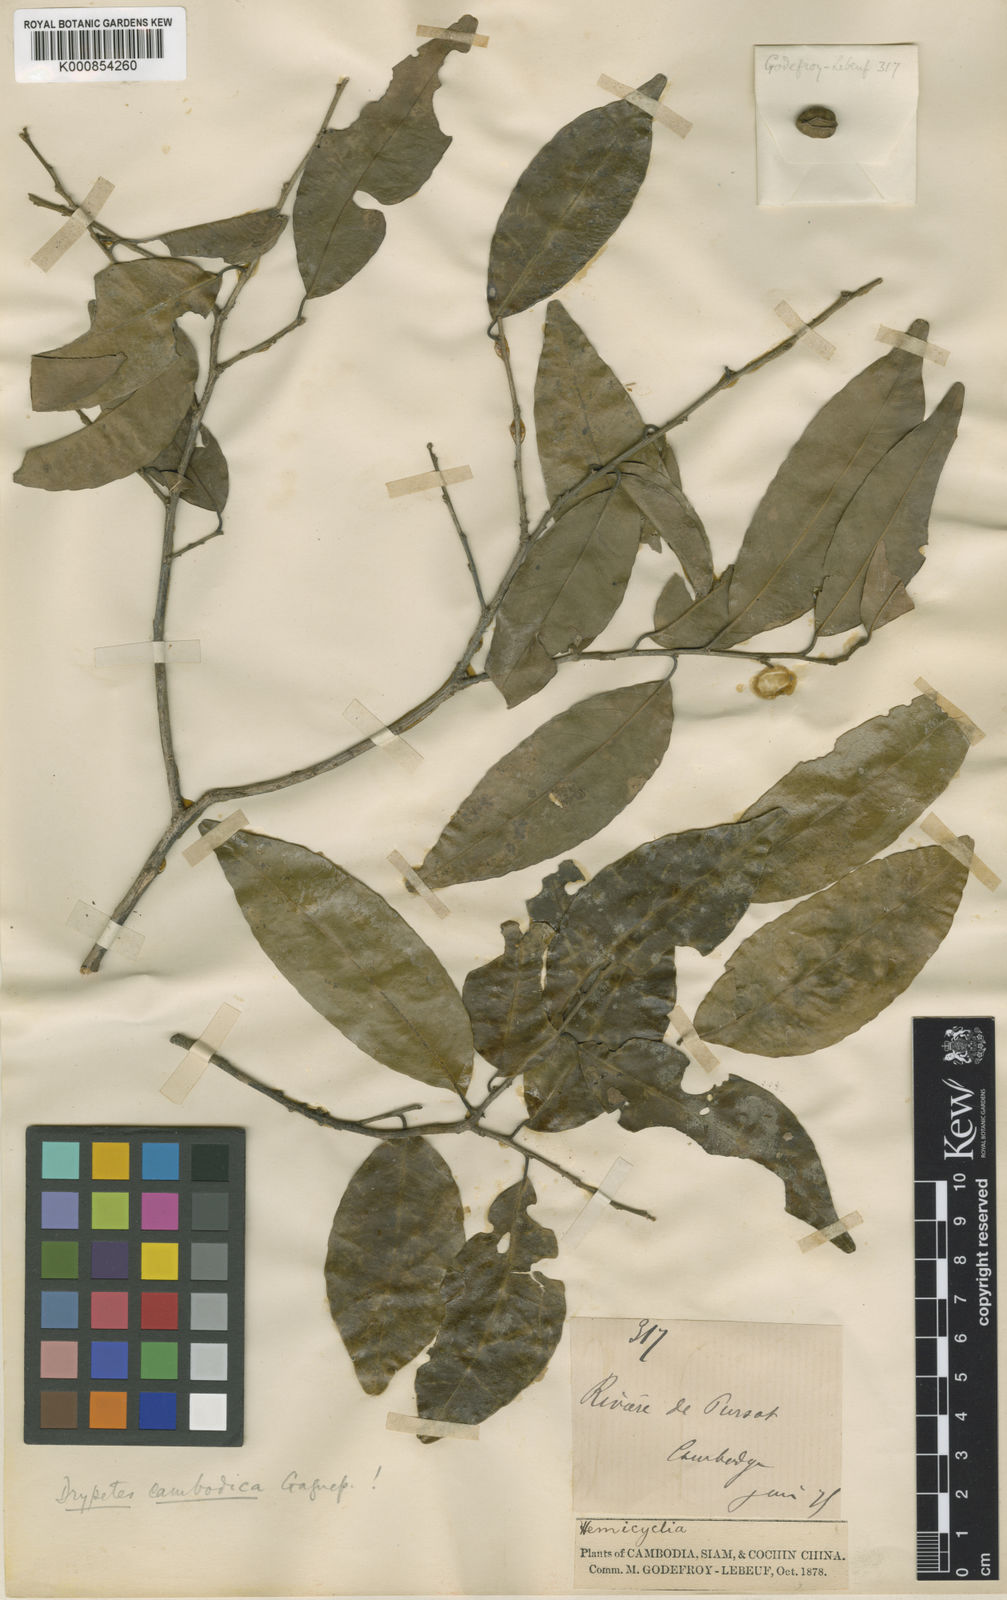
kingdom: Plantae
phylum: Tracheophyta
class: Magnoliopsida
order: Malpighiales
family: Putranjivaceae
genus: Drypetes
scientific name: Drypetes cambodica
